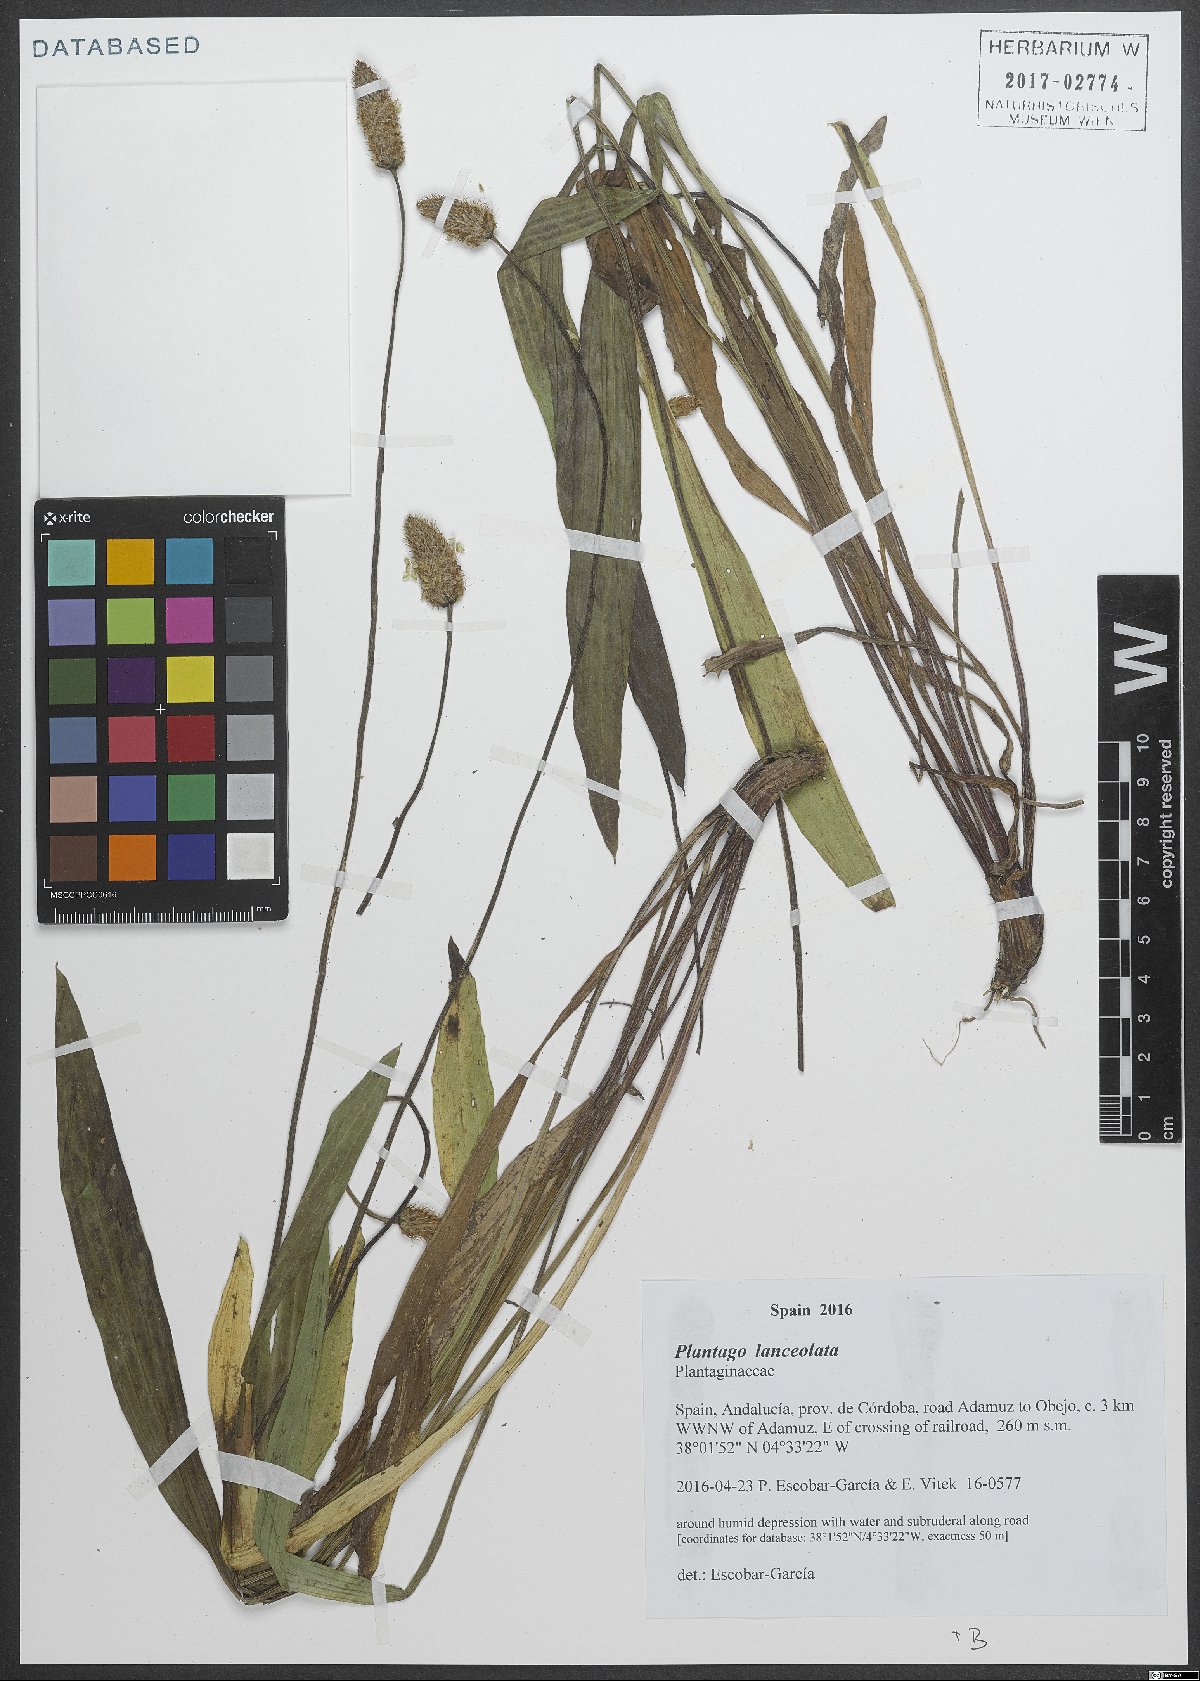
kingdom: Plantae
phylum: Tracheophyta
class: Magnoliopsida
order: Lamiales
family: Plantaginaceae
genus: Plantago
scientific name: Plantago lanceolata
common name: Ribwort plantain
